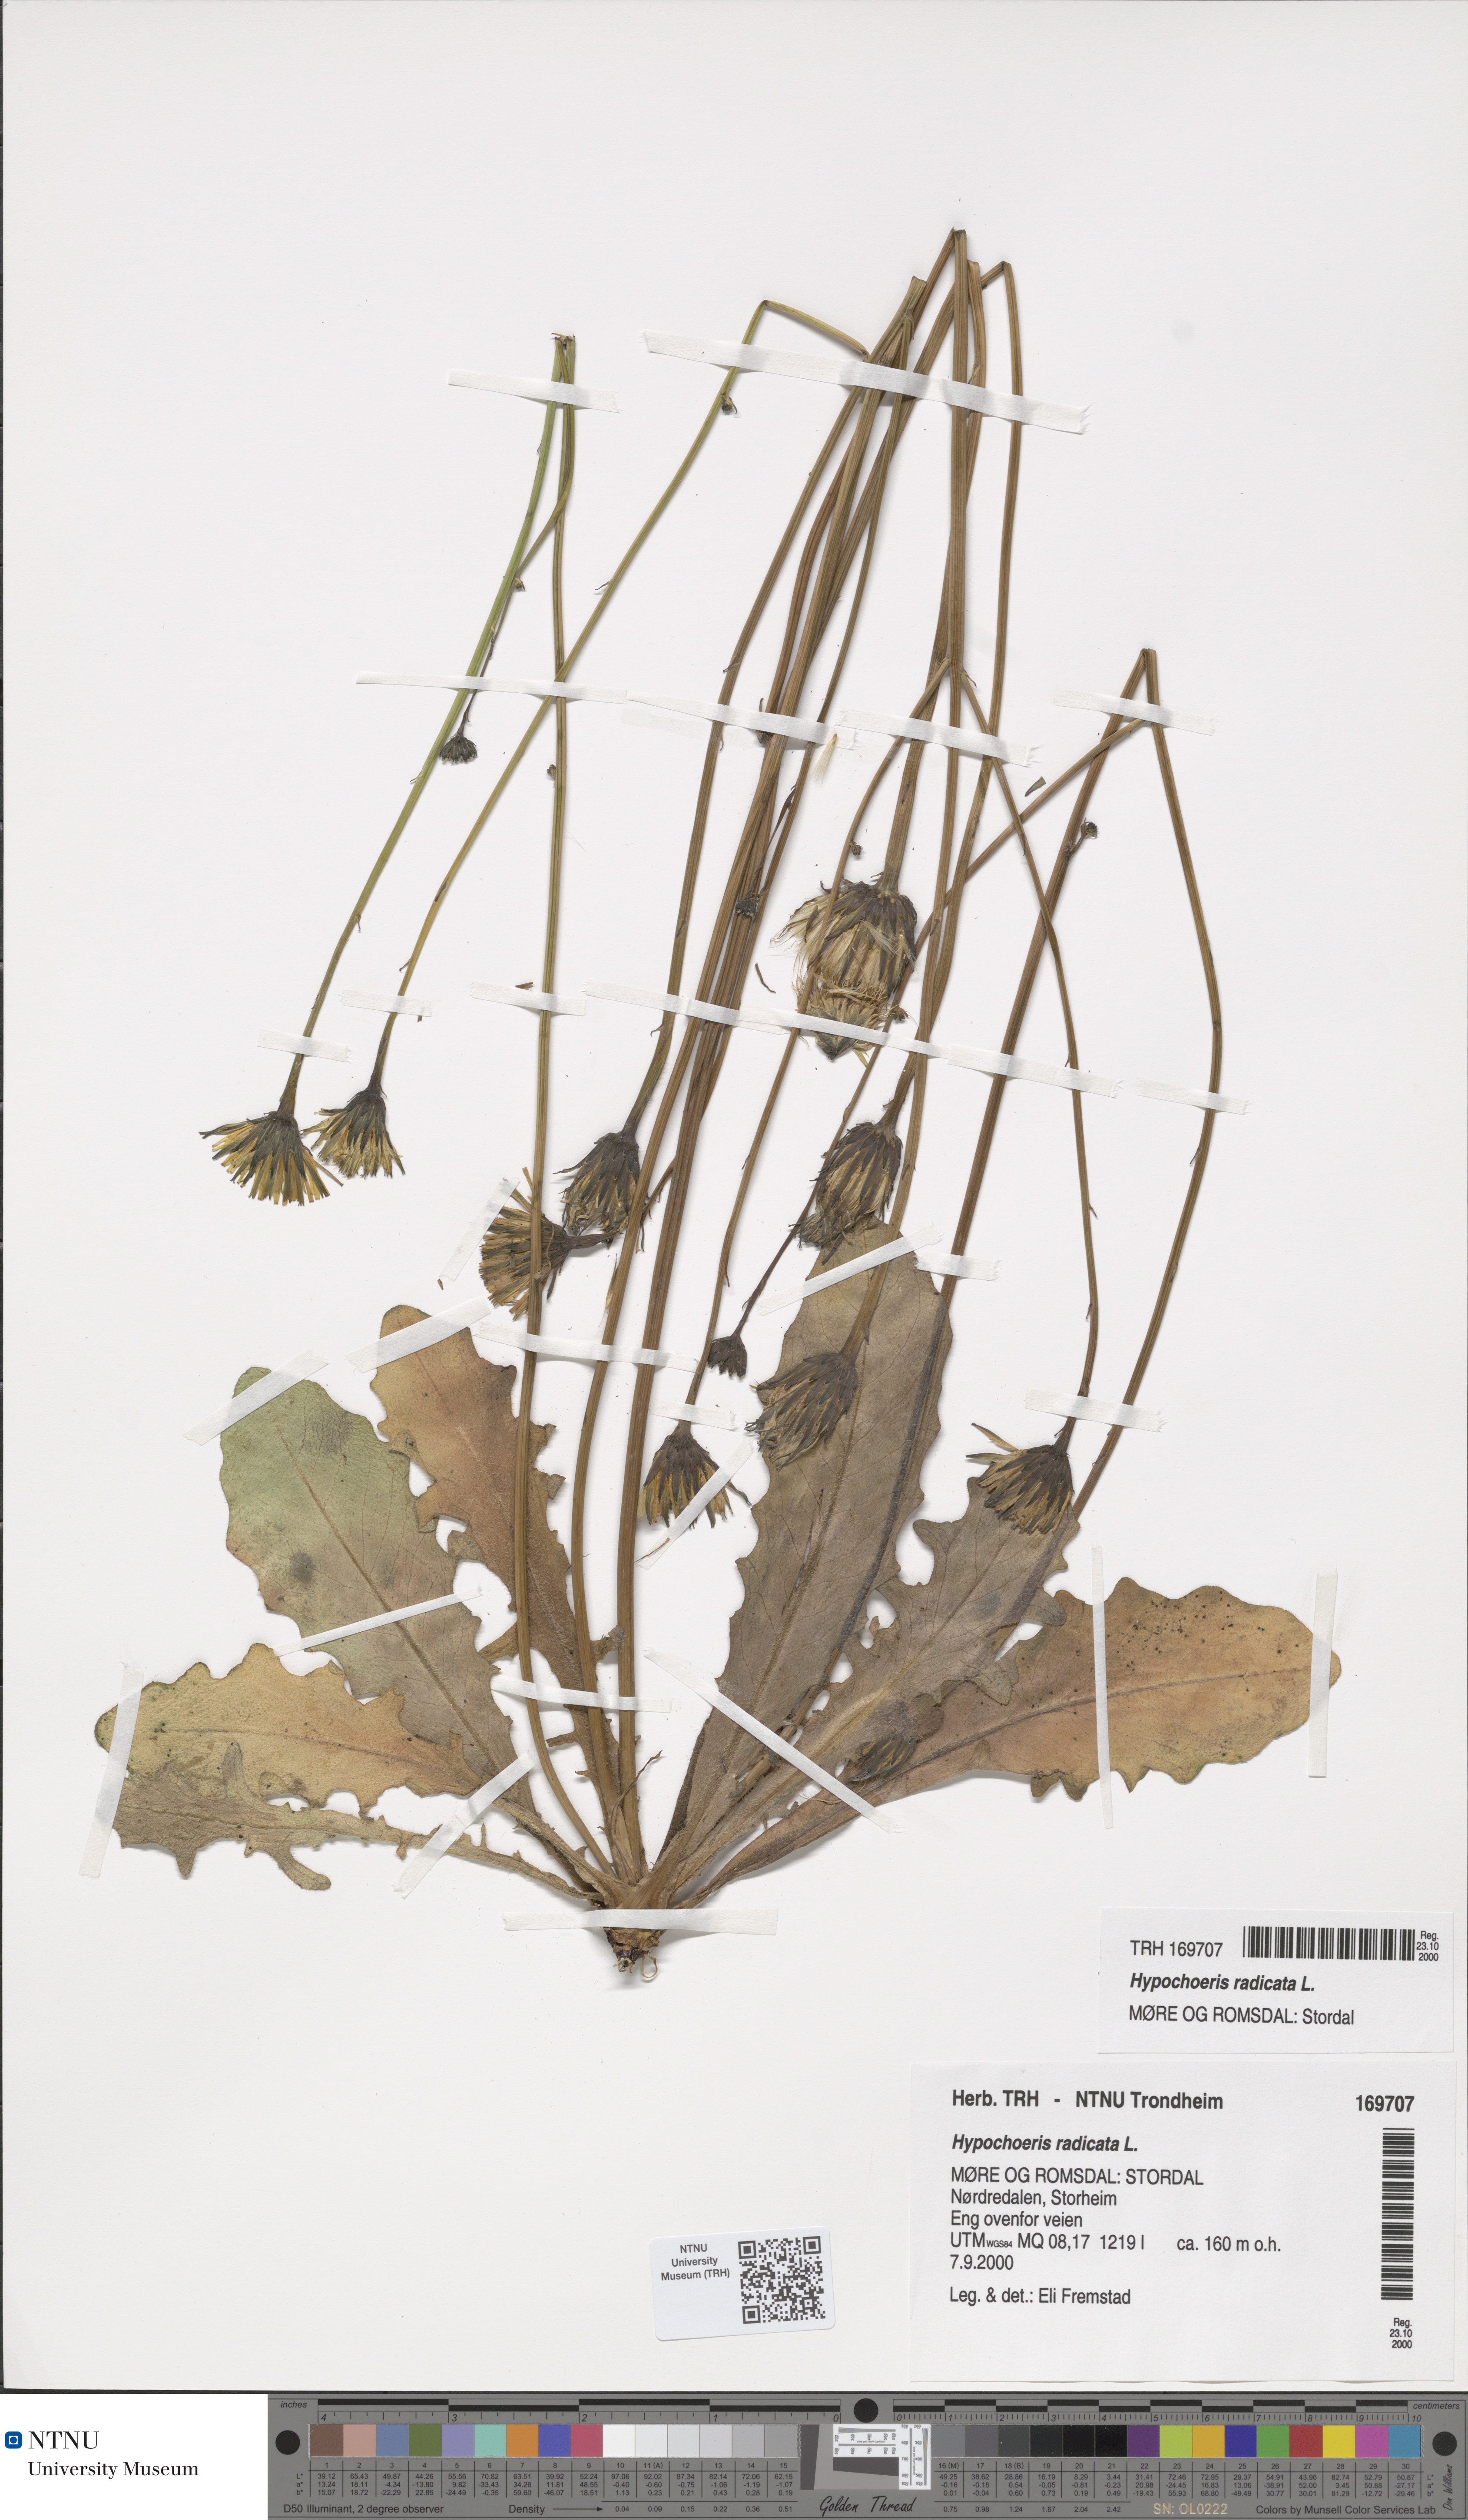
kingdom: Plantae
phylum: Tracheophyta
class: Magnoliopsida
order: Asterales
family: Asteraceae
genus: Hypochaeris
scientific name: Hypochaeris radicata
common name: Flatweed
